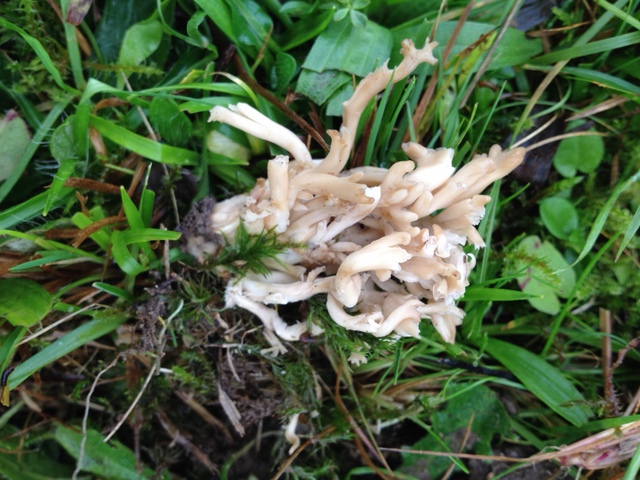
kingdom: Fungi
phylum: Basidiomycota
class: Agaricomycetes
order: Agaricales
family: Clavariaceae
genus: Clavulinopsis
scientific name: Clavulinopsis umbrinella
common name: gulgrå køllesvamp
